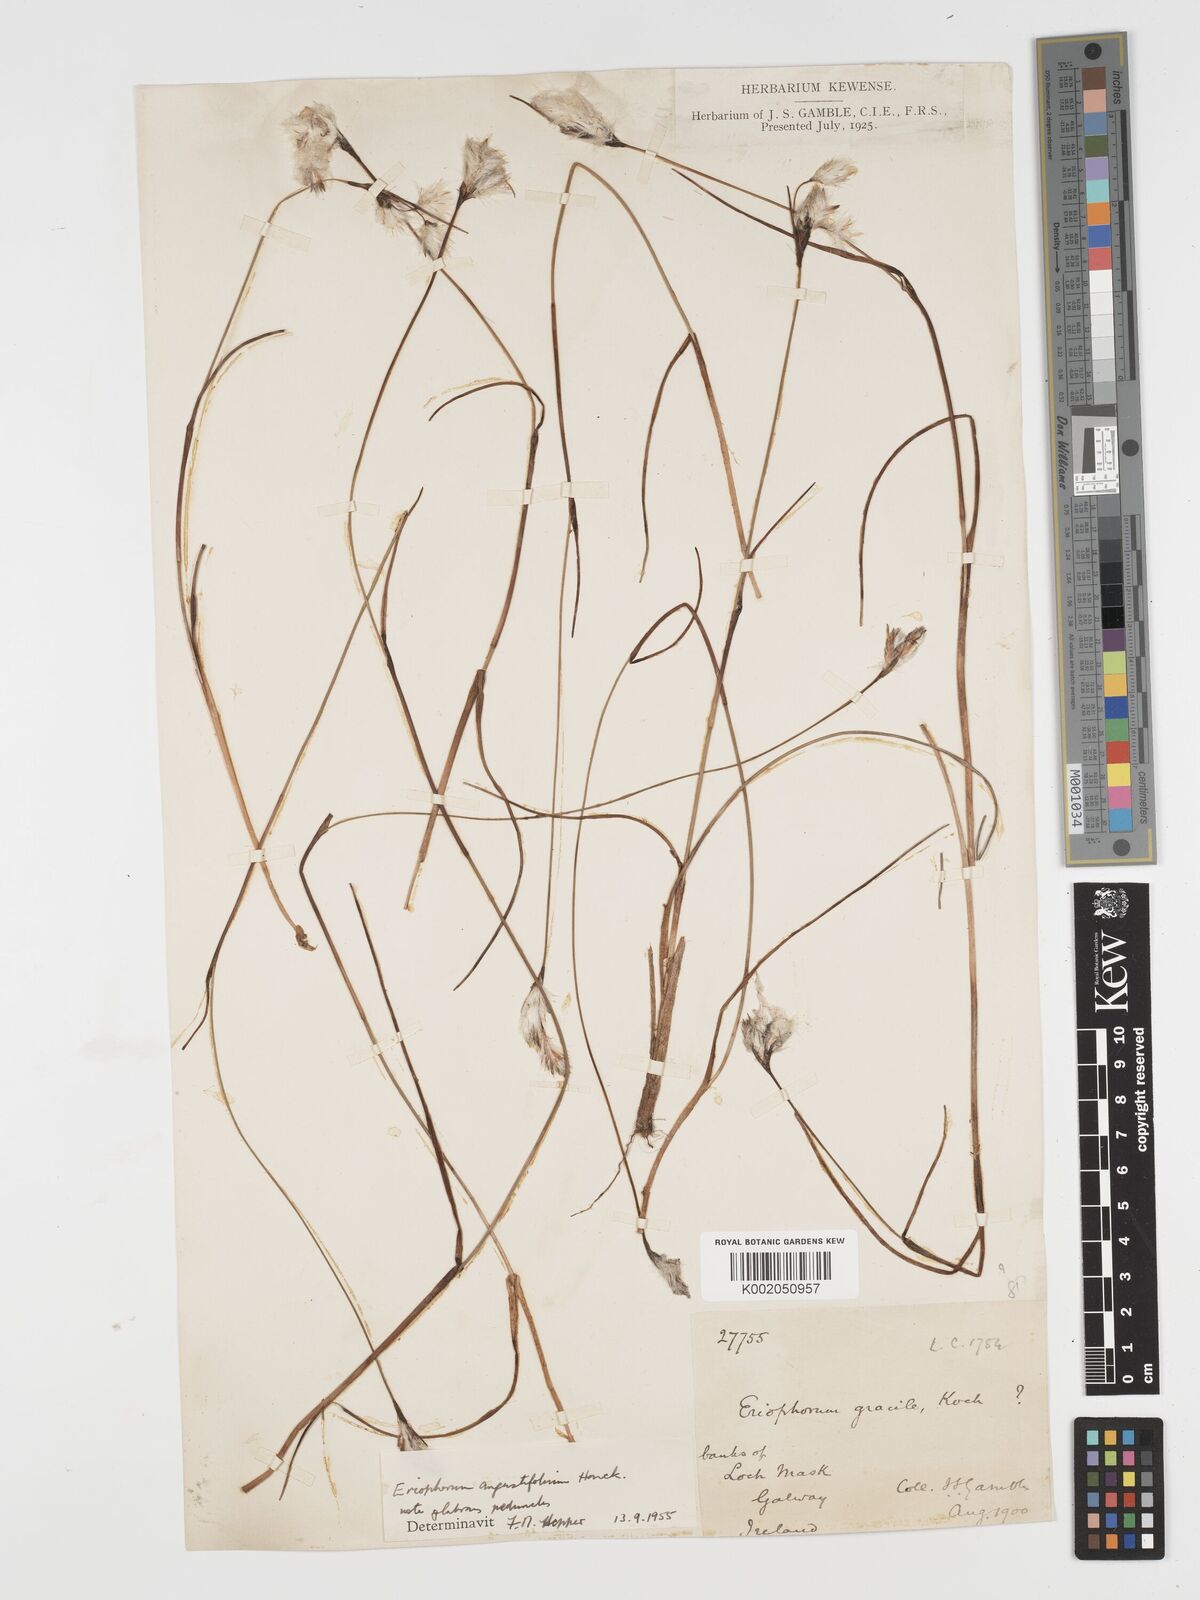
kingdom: Plantae
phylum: Tracheophyta
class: Liliopsida
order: Poales
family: Cyperaceae
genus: Eriophorum
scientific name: Eriophorum angustifolium
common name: Common cottongrass
